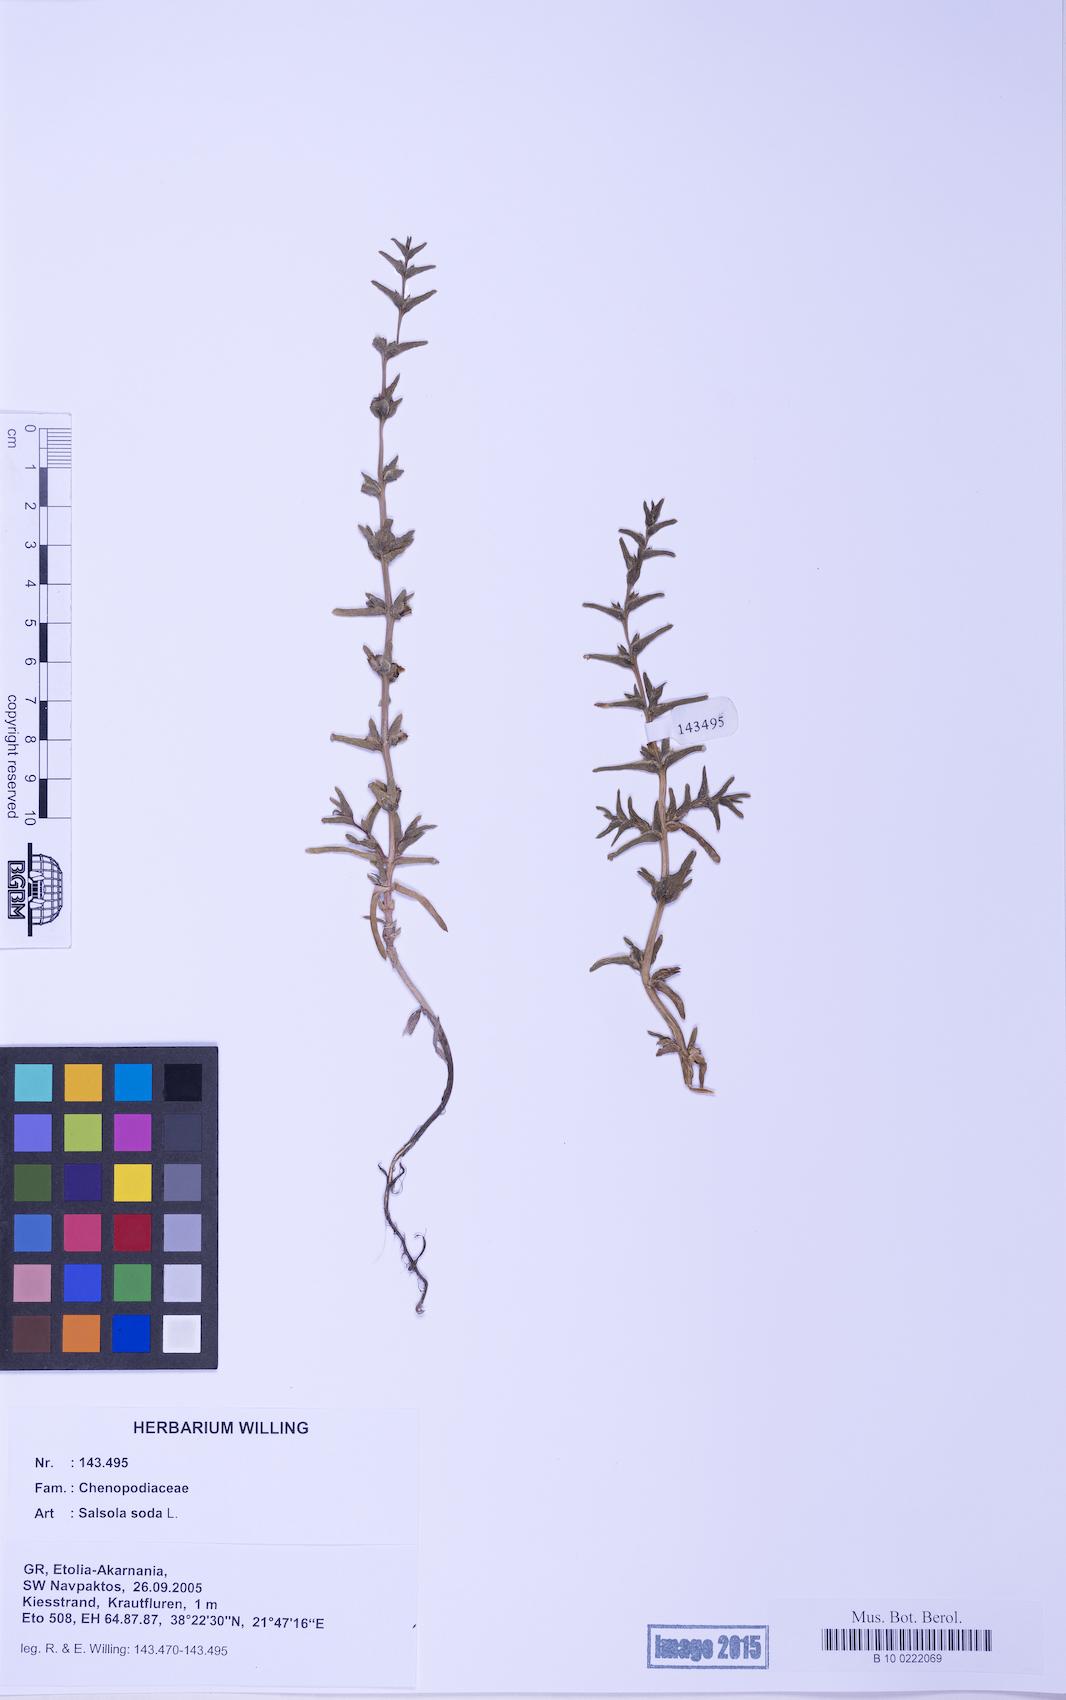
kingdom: Plantae
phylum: Tracheophyta
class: Magnoliopsida
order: Caryophyllales
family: Amaranthaceae
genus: Soda
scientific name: Soda inermis
